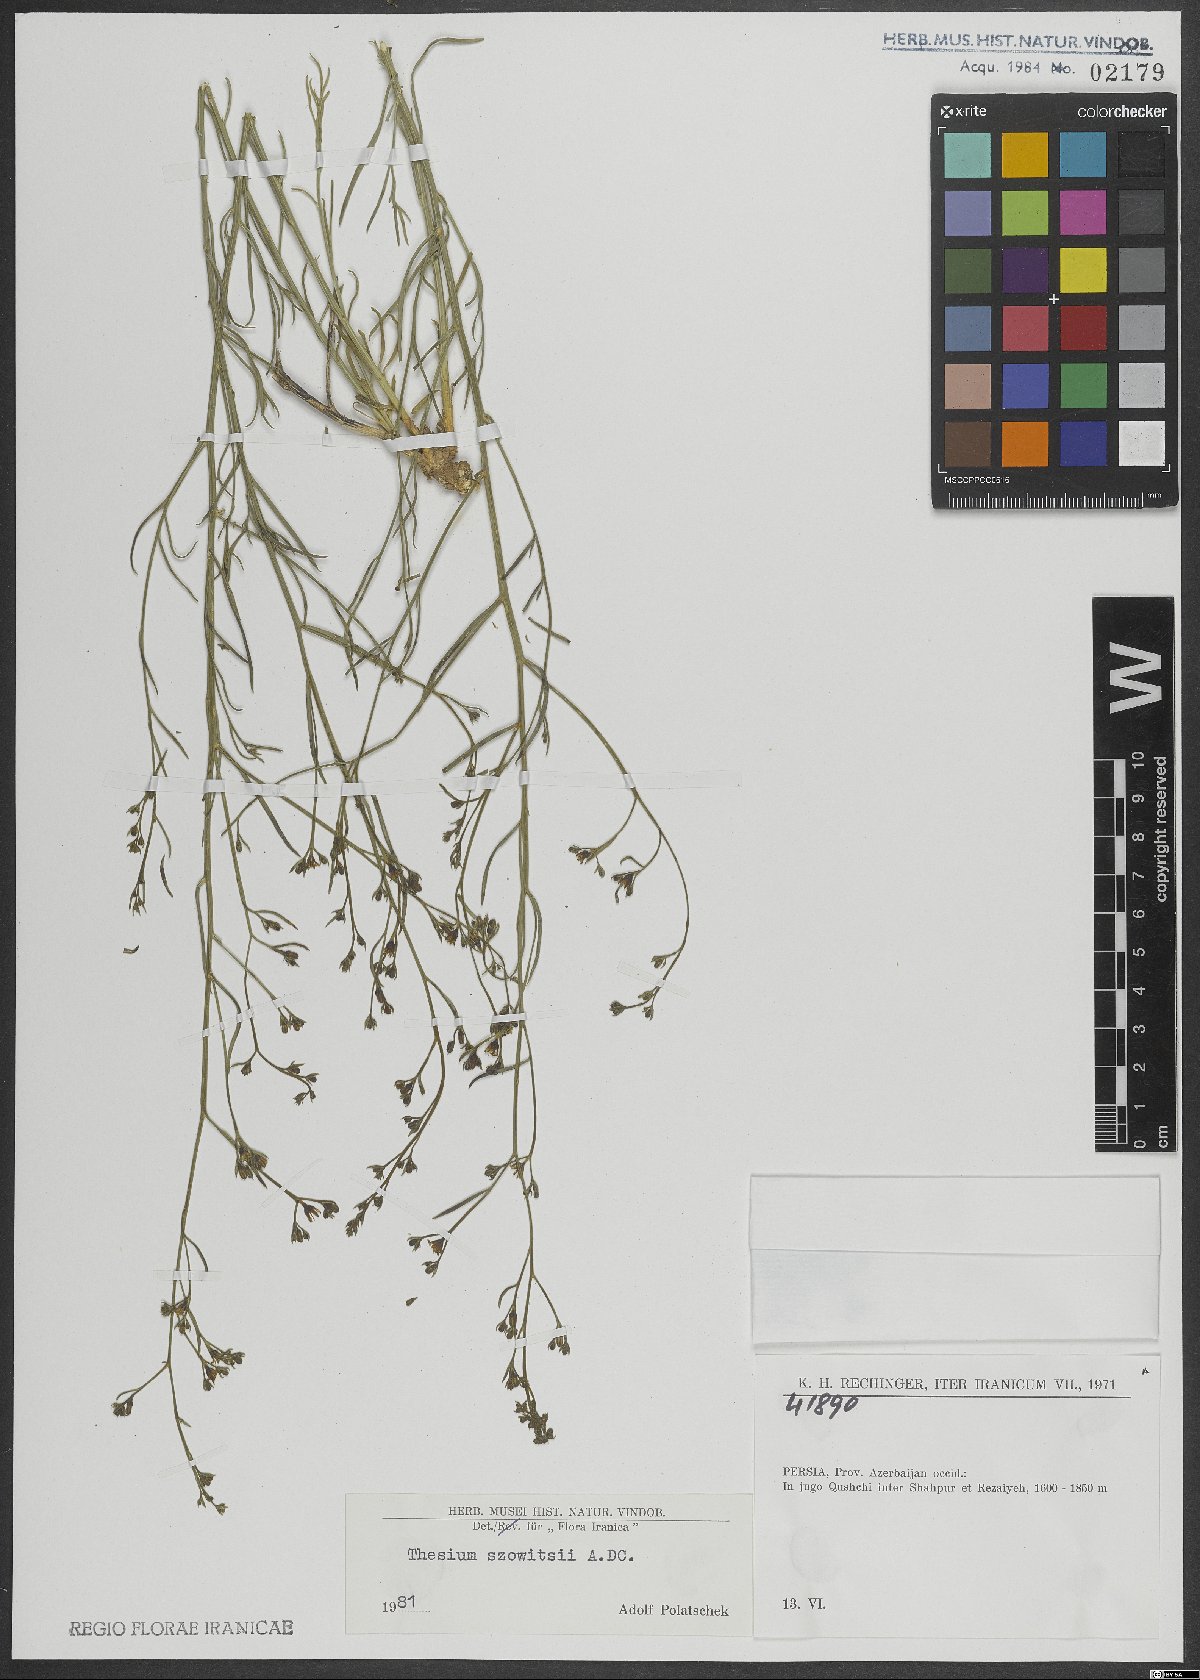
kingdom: Plantae
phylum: Tracheophyta
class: Magnoliopsida
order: Santalales
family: Thesiaceae
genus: Thesium
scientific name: Thesium szowitsii
